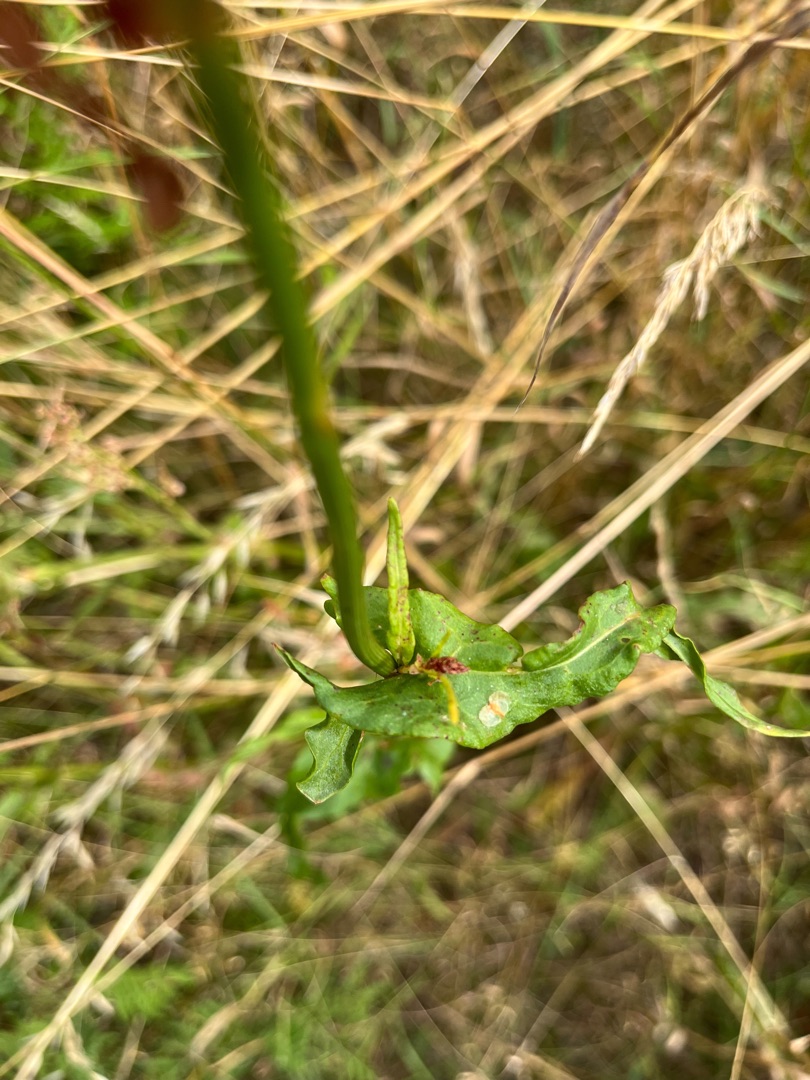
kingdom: Plantae
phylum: Tracheophyta
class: Magnoliopsida
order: Caryophyllales
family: Polygonaceae
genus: Rumex
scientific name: Rumex thyrsiflorus
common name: Dusk-syre
